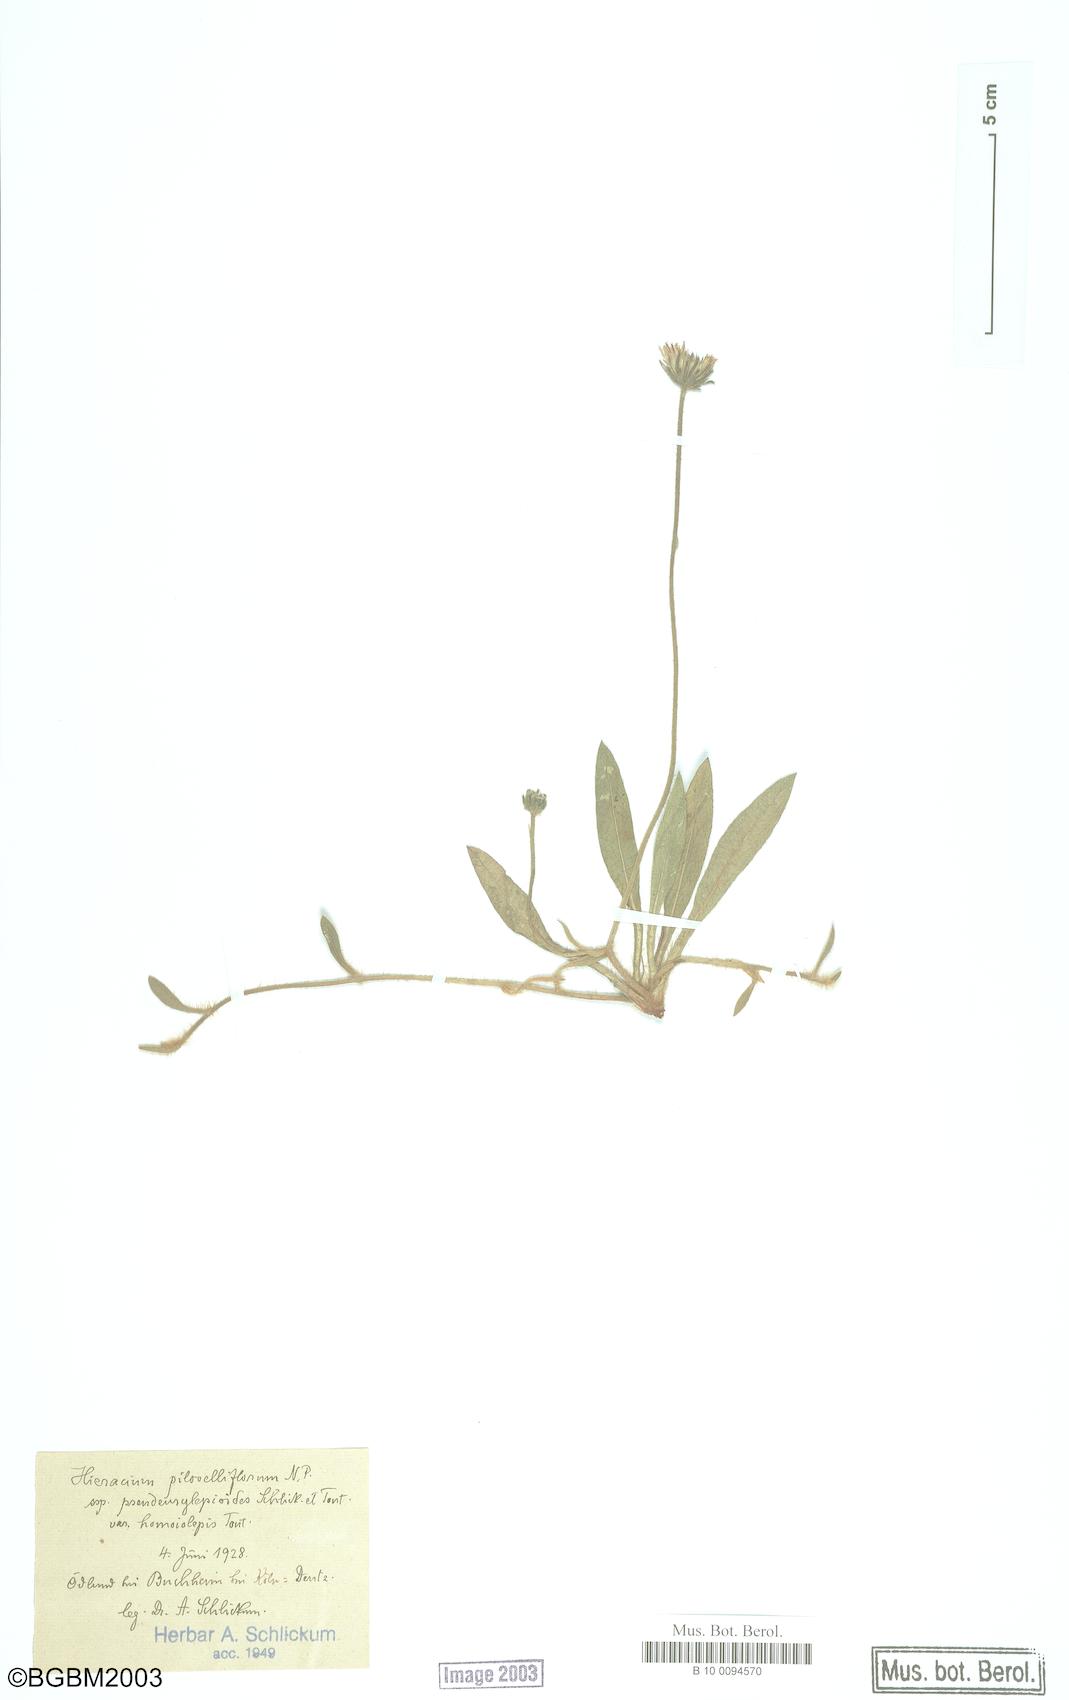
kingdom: Plantae
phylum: Tracheophyta
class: Magnoliopsida
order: Asterales
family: Asteraceae
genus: Pilosella
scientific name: Pilosella piloselliflora
